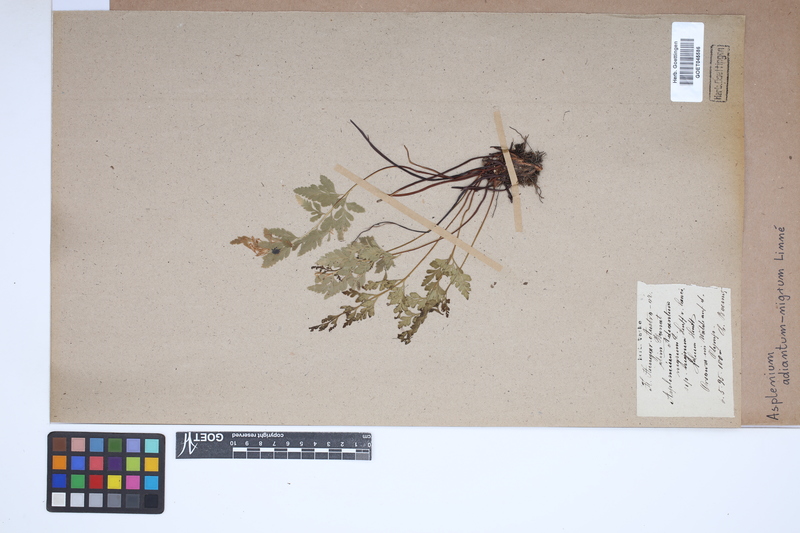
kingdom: Plantae
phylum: Tracheophyta
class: Polypodiopsida
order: Polypodiales
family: Aspleniaceae
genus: Asplenium
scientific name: Asplenium adiantum-nigrum
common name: Black spleenwort
